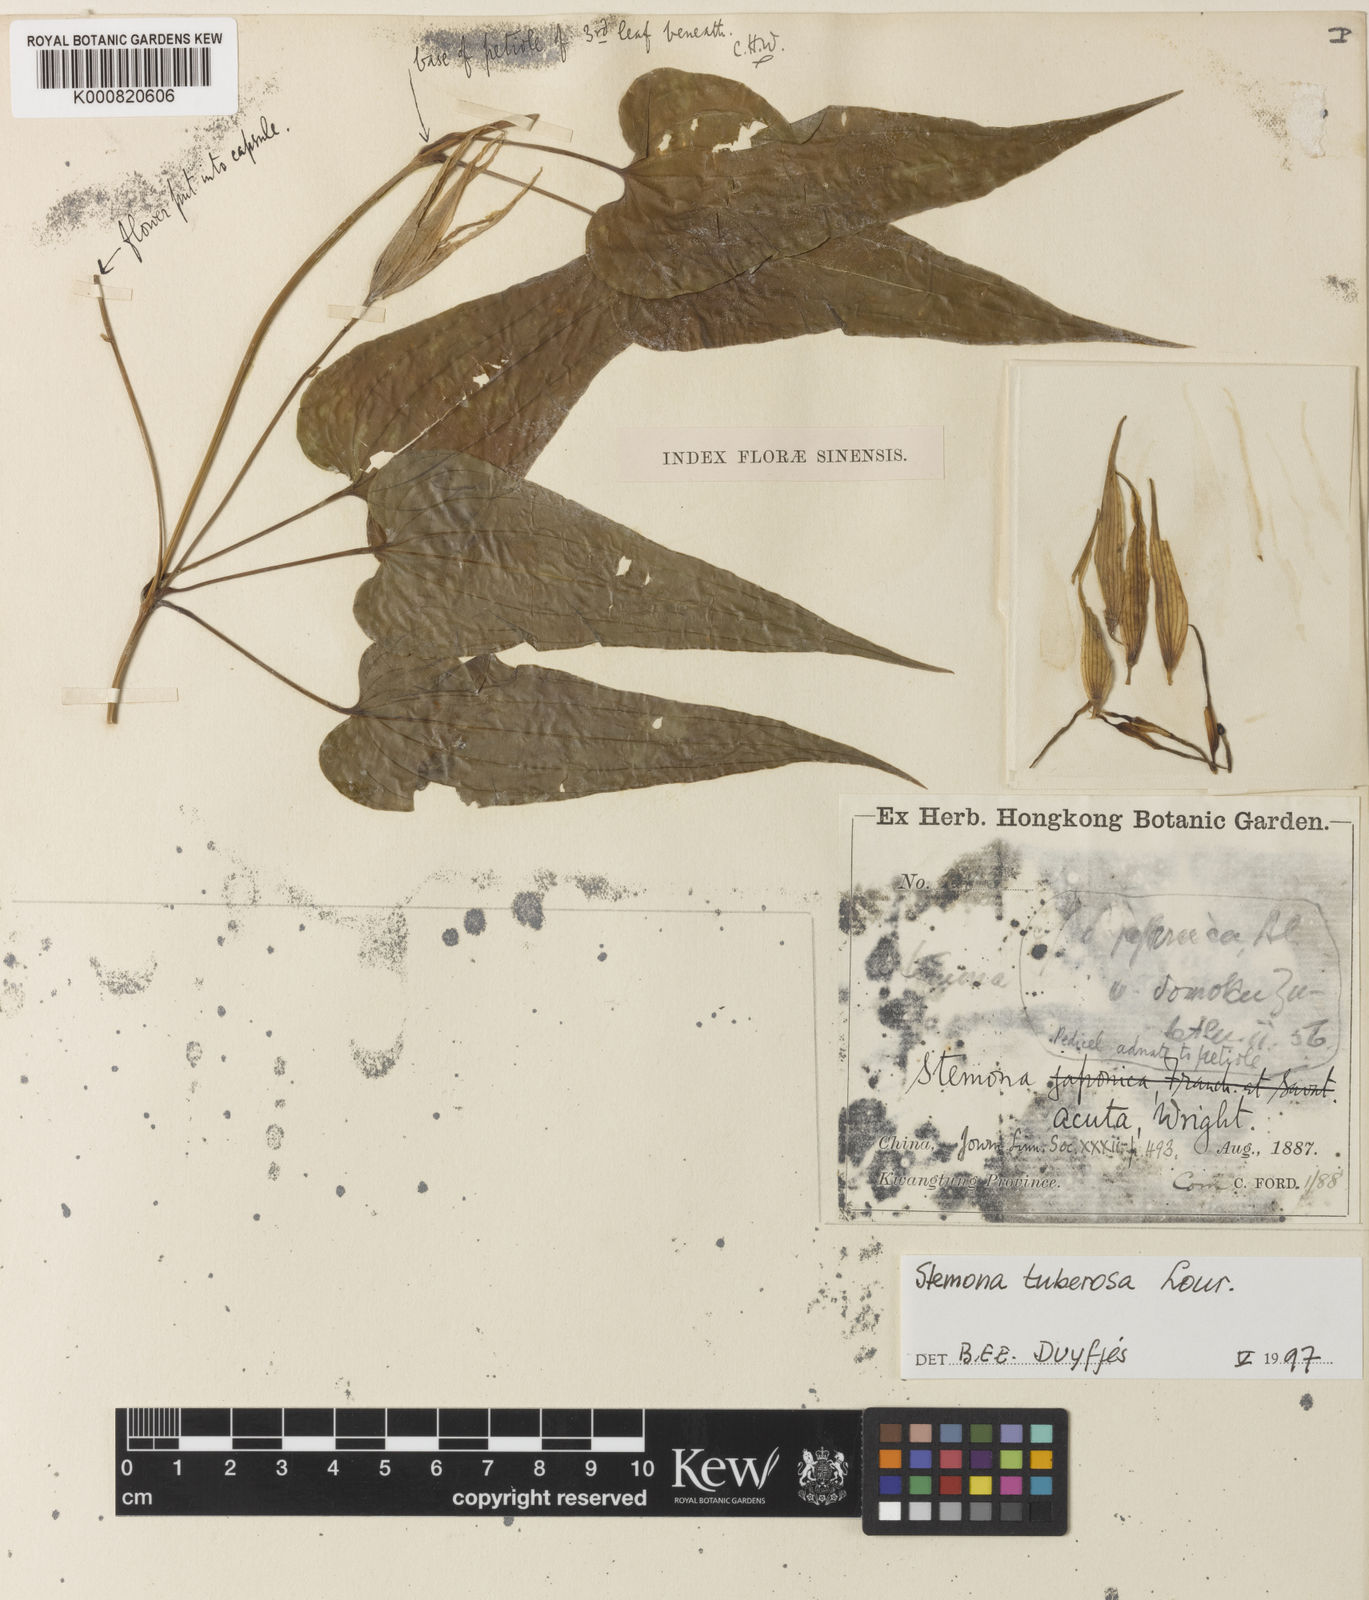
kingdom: Plantae
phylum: Tracheophyta
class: Liliopsida
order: Pandanales
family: Stemonaceae
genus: Stemona
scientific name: Stemona tuberosa
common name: Stemona
